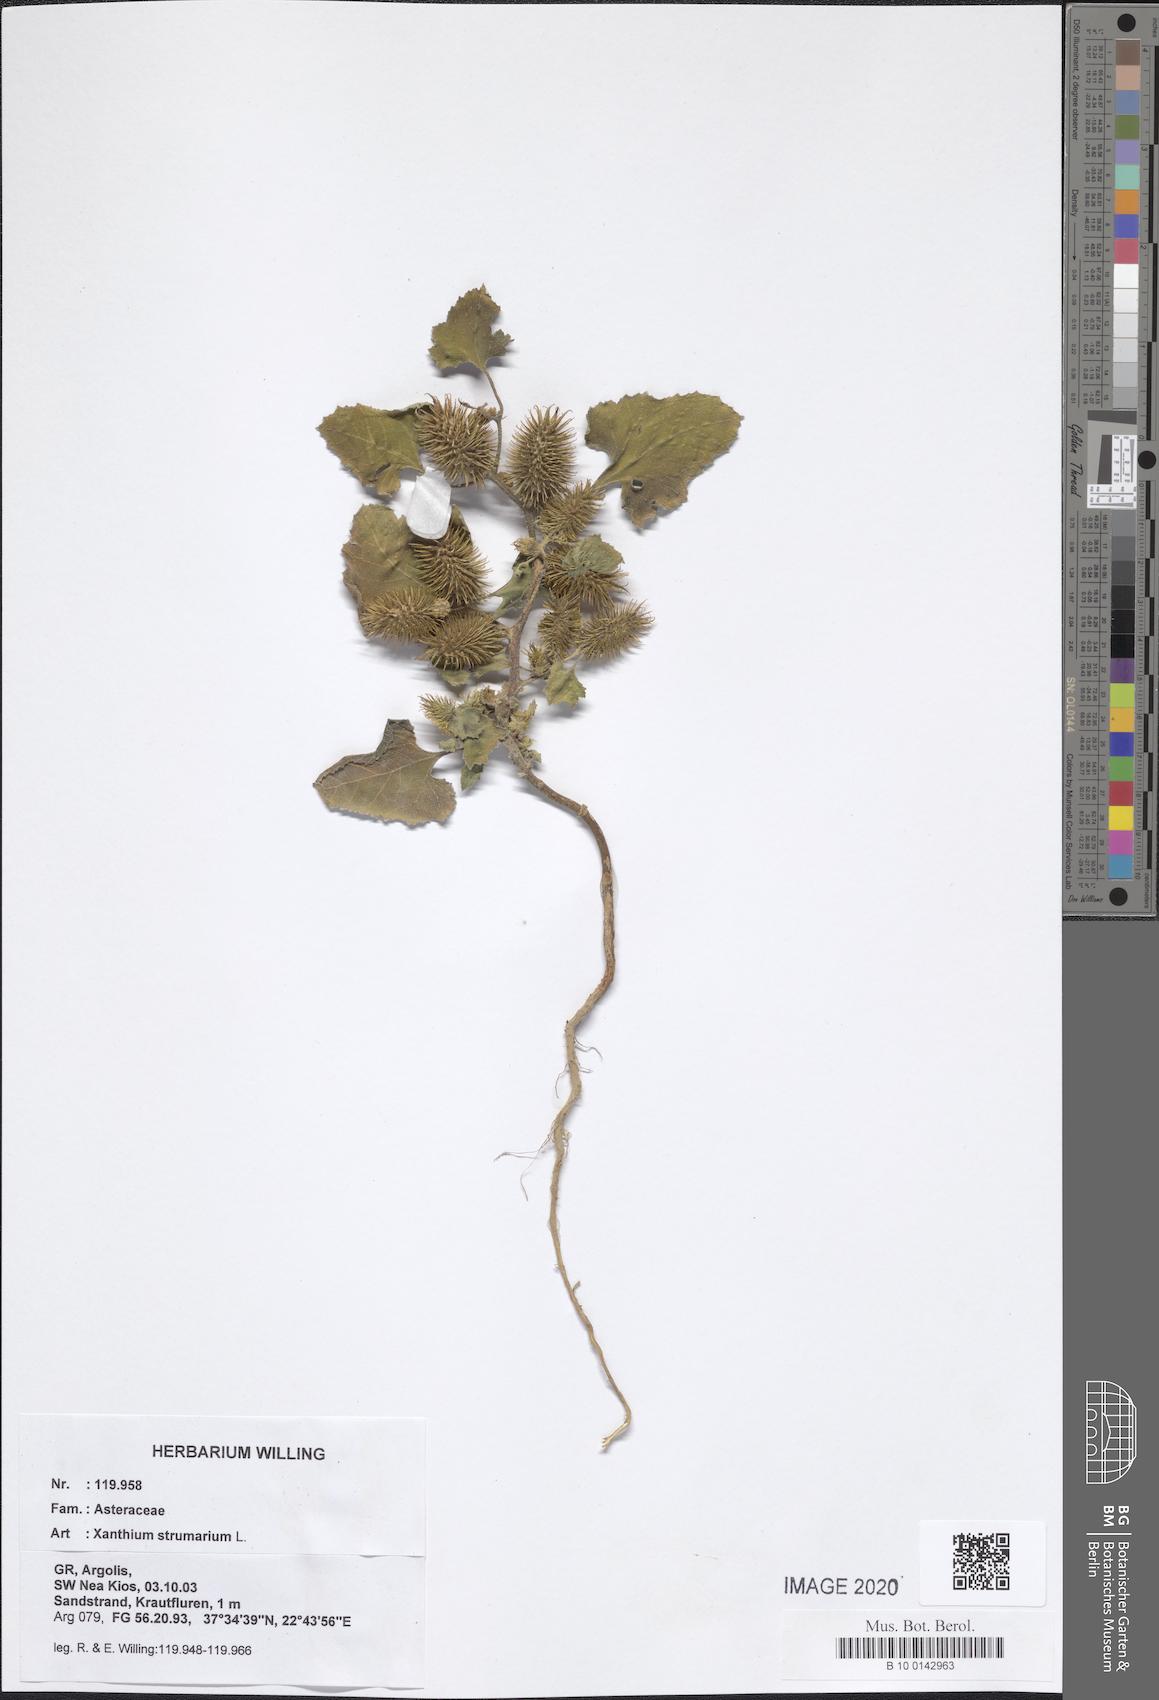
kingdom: Plantae
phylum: Tracheophyta
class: Magnoliopsida
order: Asterales
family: Asteraceae
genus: Xanthium
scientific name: Xanthium strumarium
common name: Rough cocklebur
